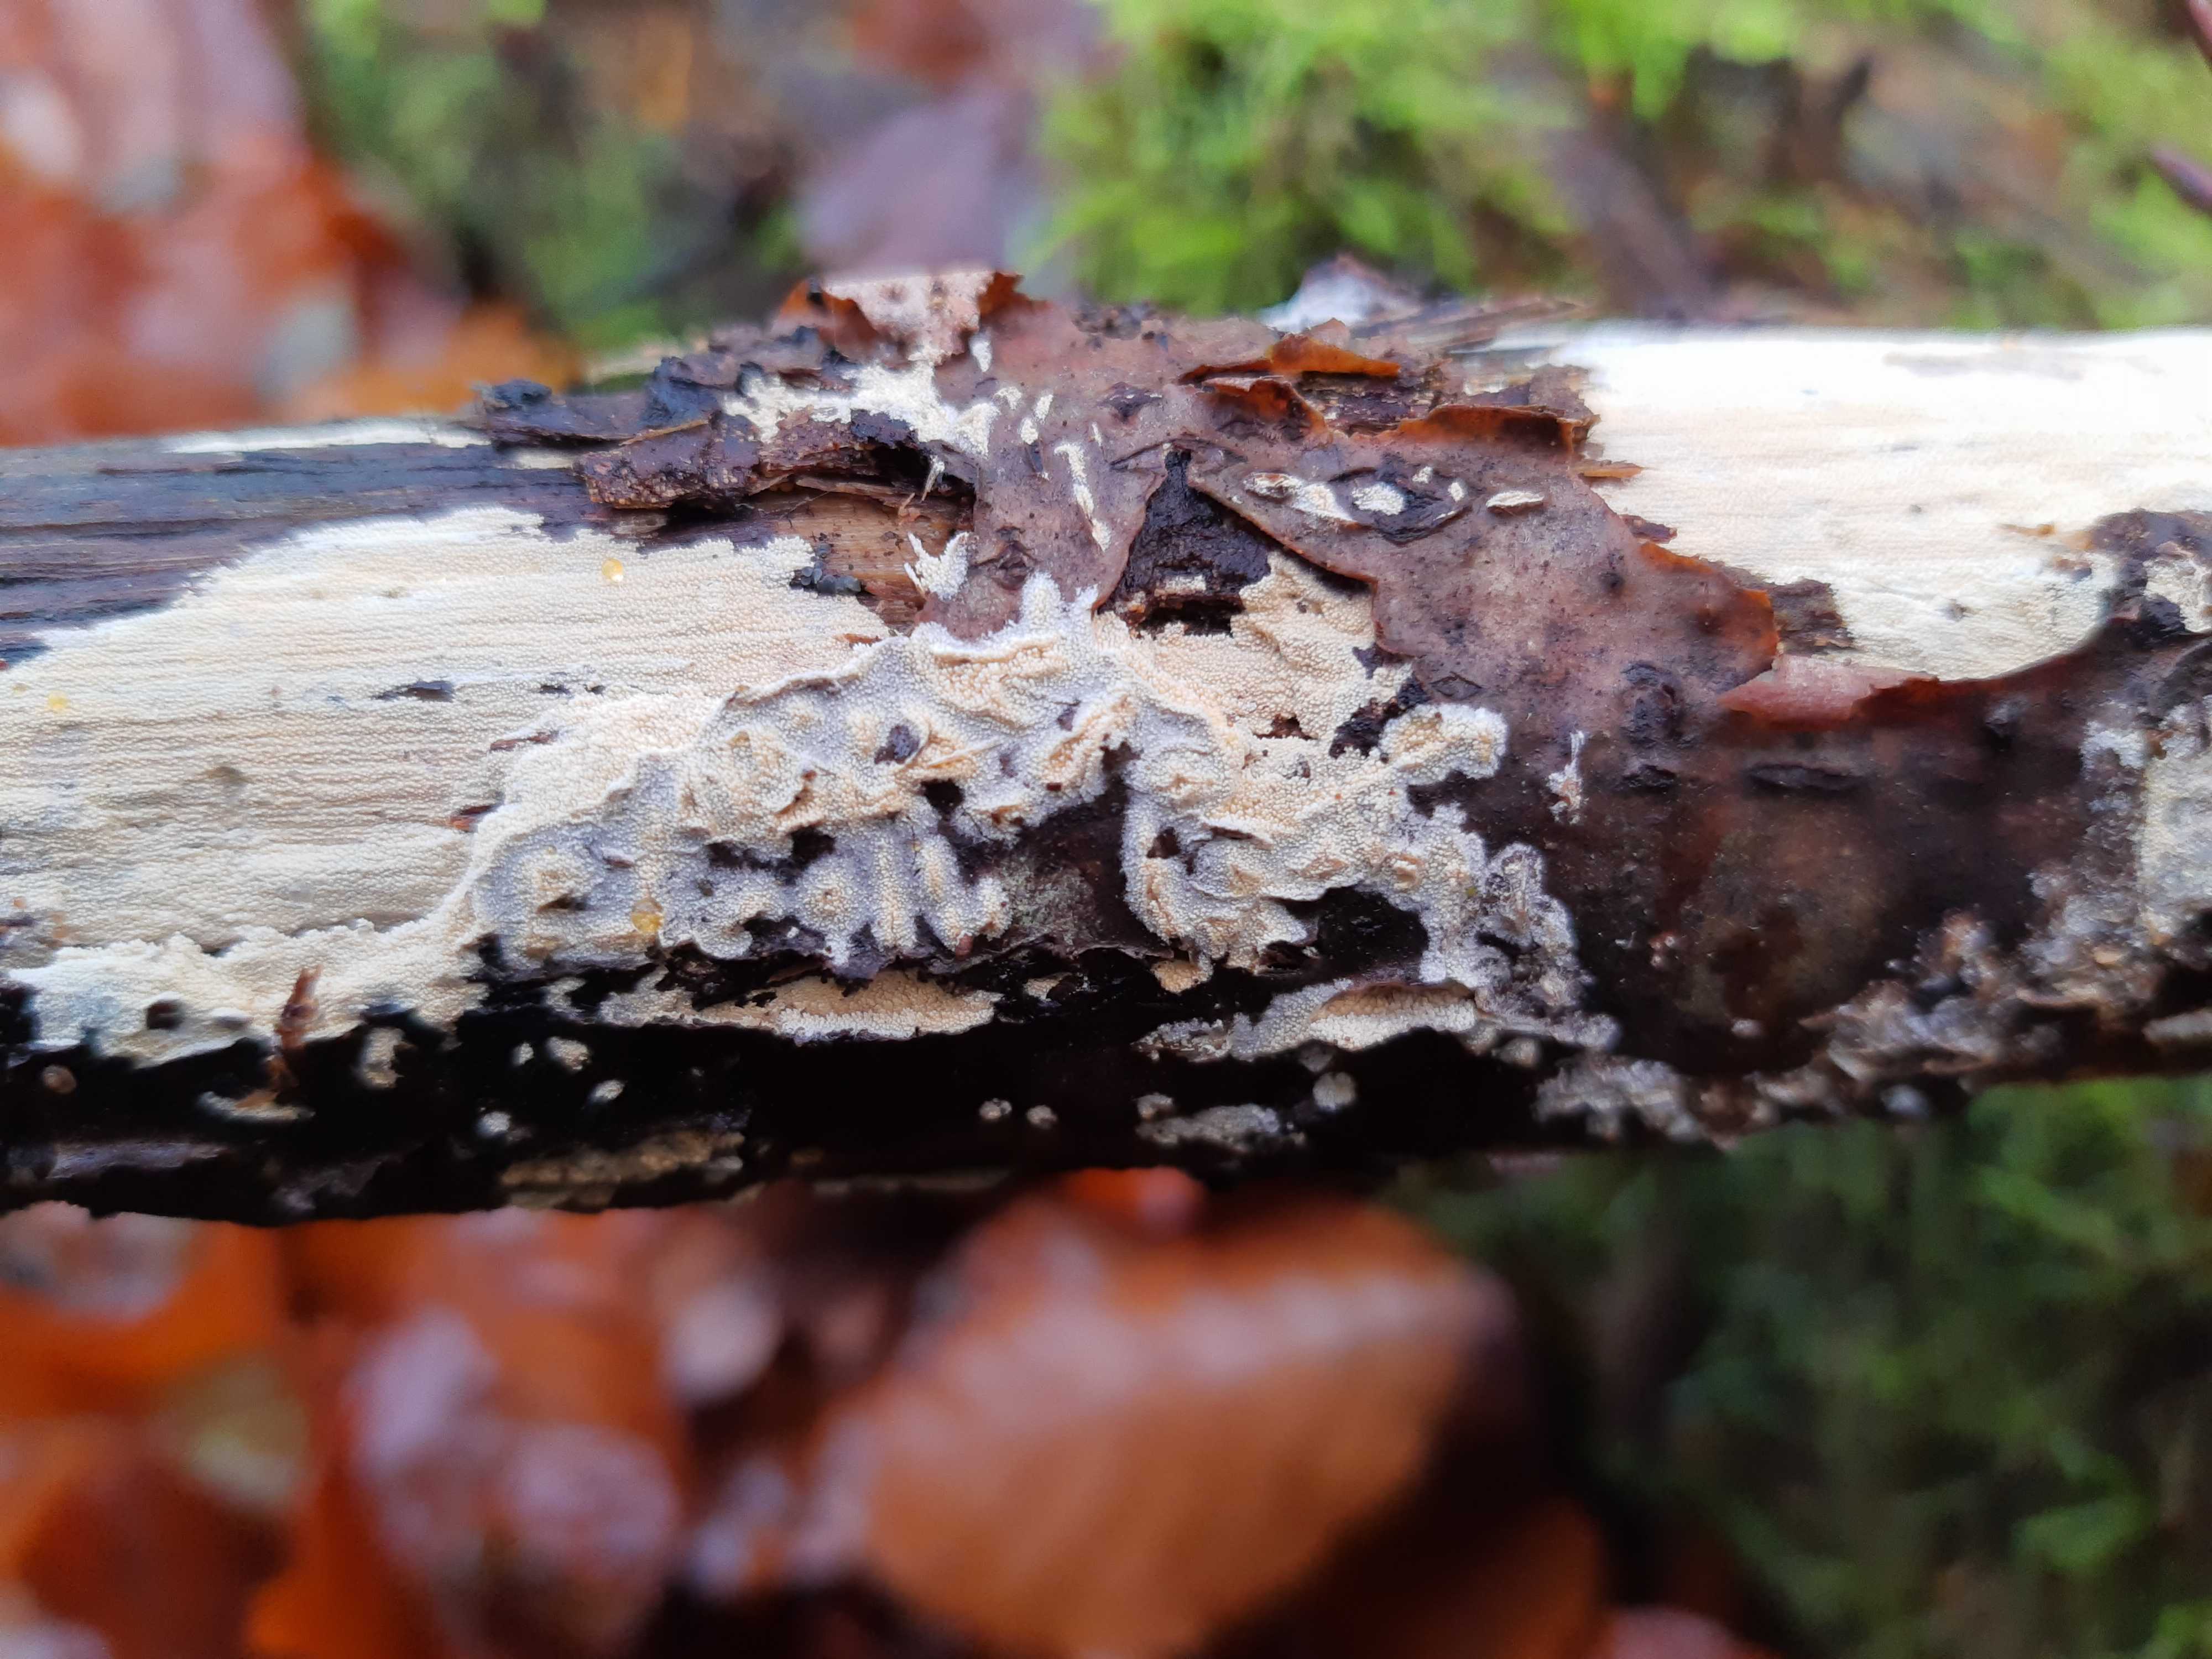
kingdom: Fungi
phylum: Basidiomycota
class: Agaricomycetes
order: Corticiales
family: Corticiaceae
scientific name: Corticiaceae
